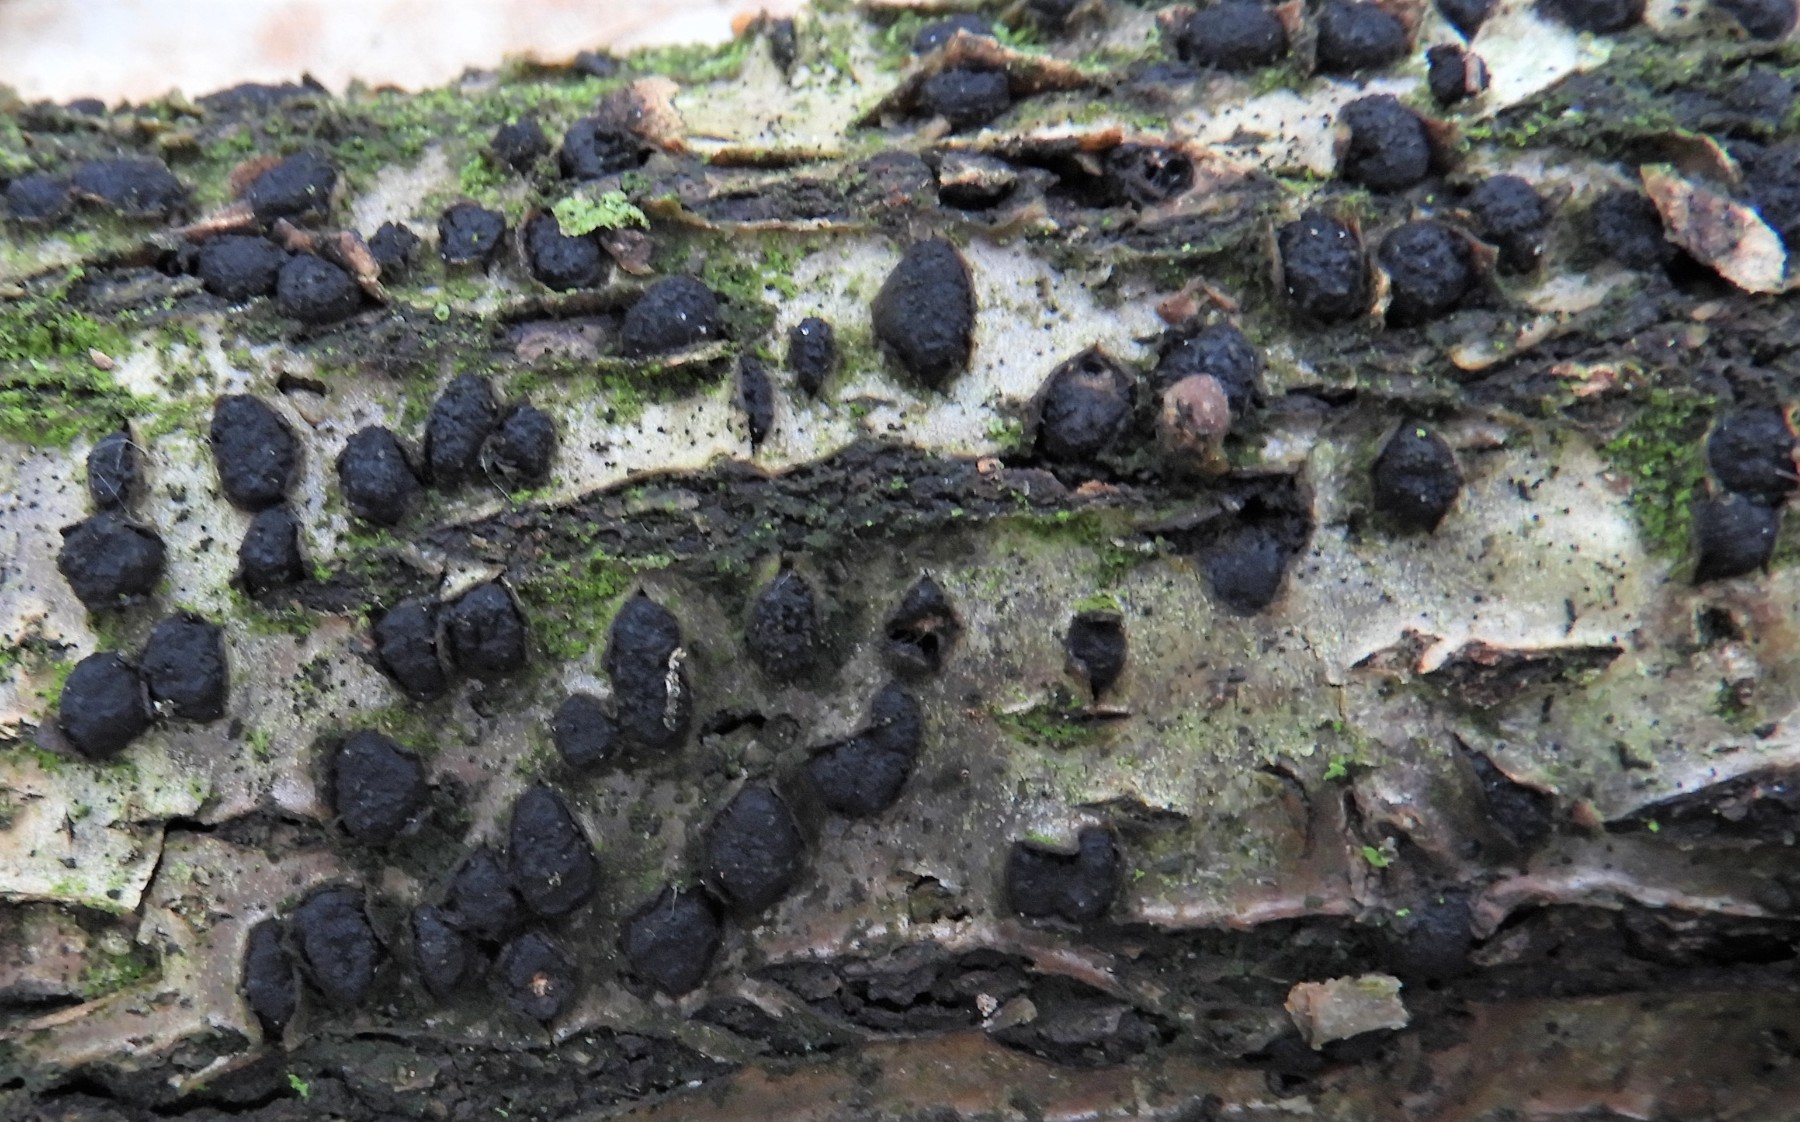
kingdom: Fungi
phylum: Ascomycota
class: Sordariomycetes
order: Xylariales
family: Diatrypaceae
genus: Diatrypella
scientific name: Diatrypella quercina
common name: ege-kulskorpe
